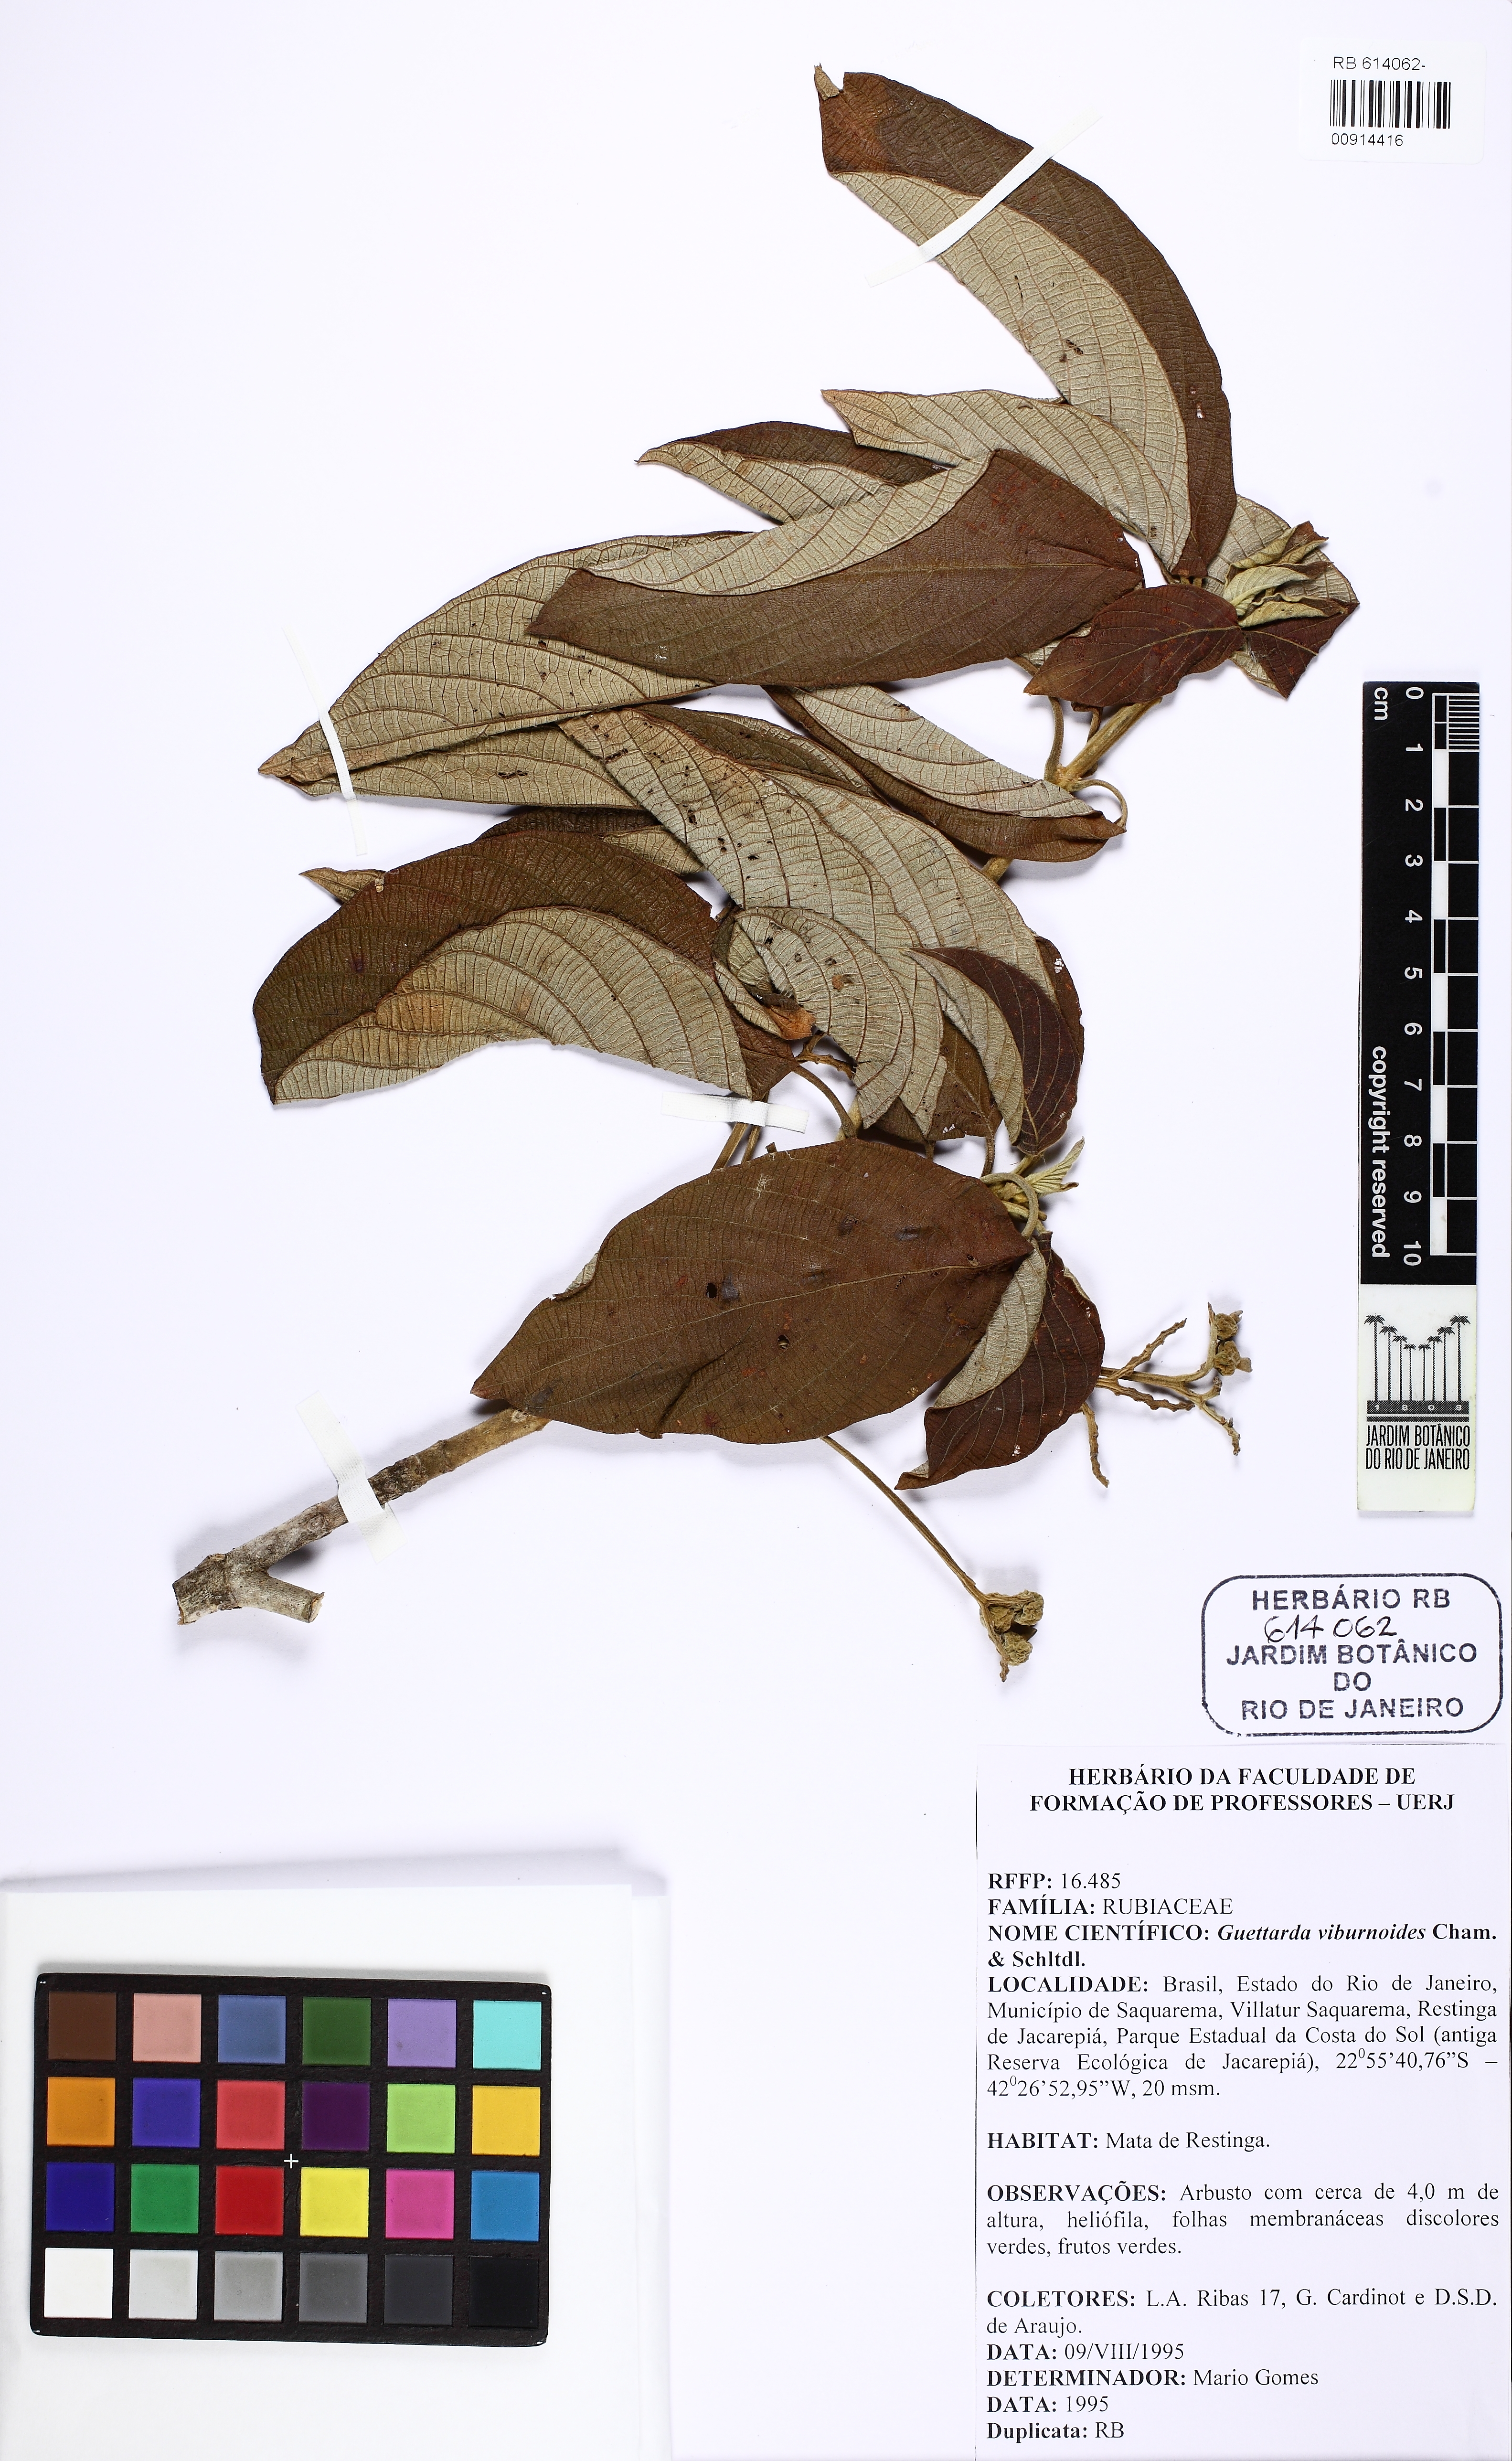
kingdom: Plantae
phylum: Tracheophyta
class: Magnoliopsida
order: Gentianales
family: Rubiaceae
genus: Guettarda
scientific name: Guettarda viburnoides
